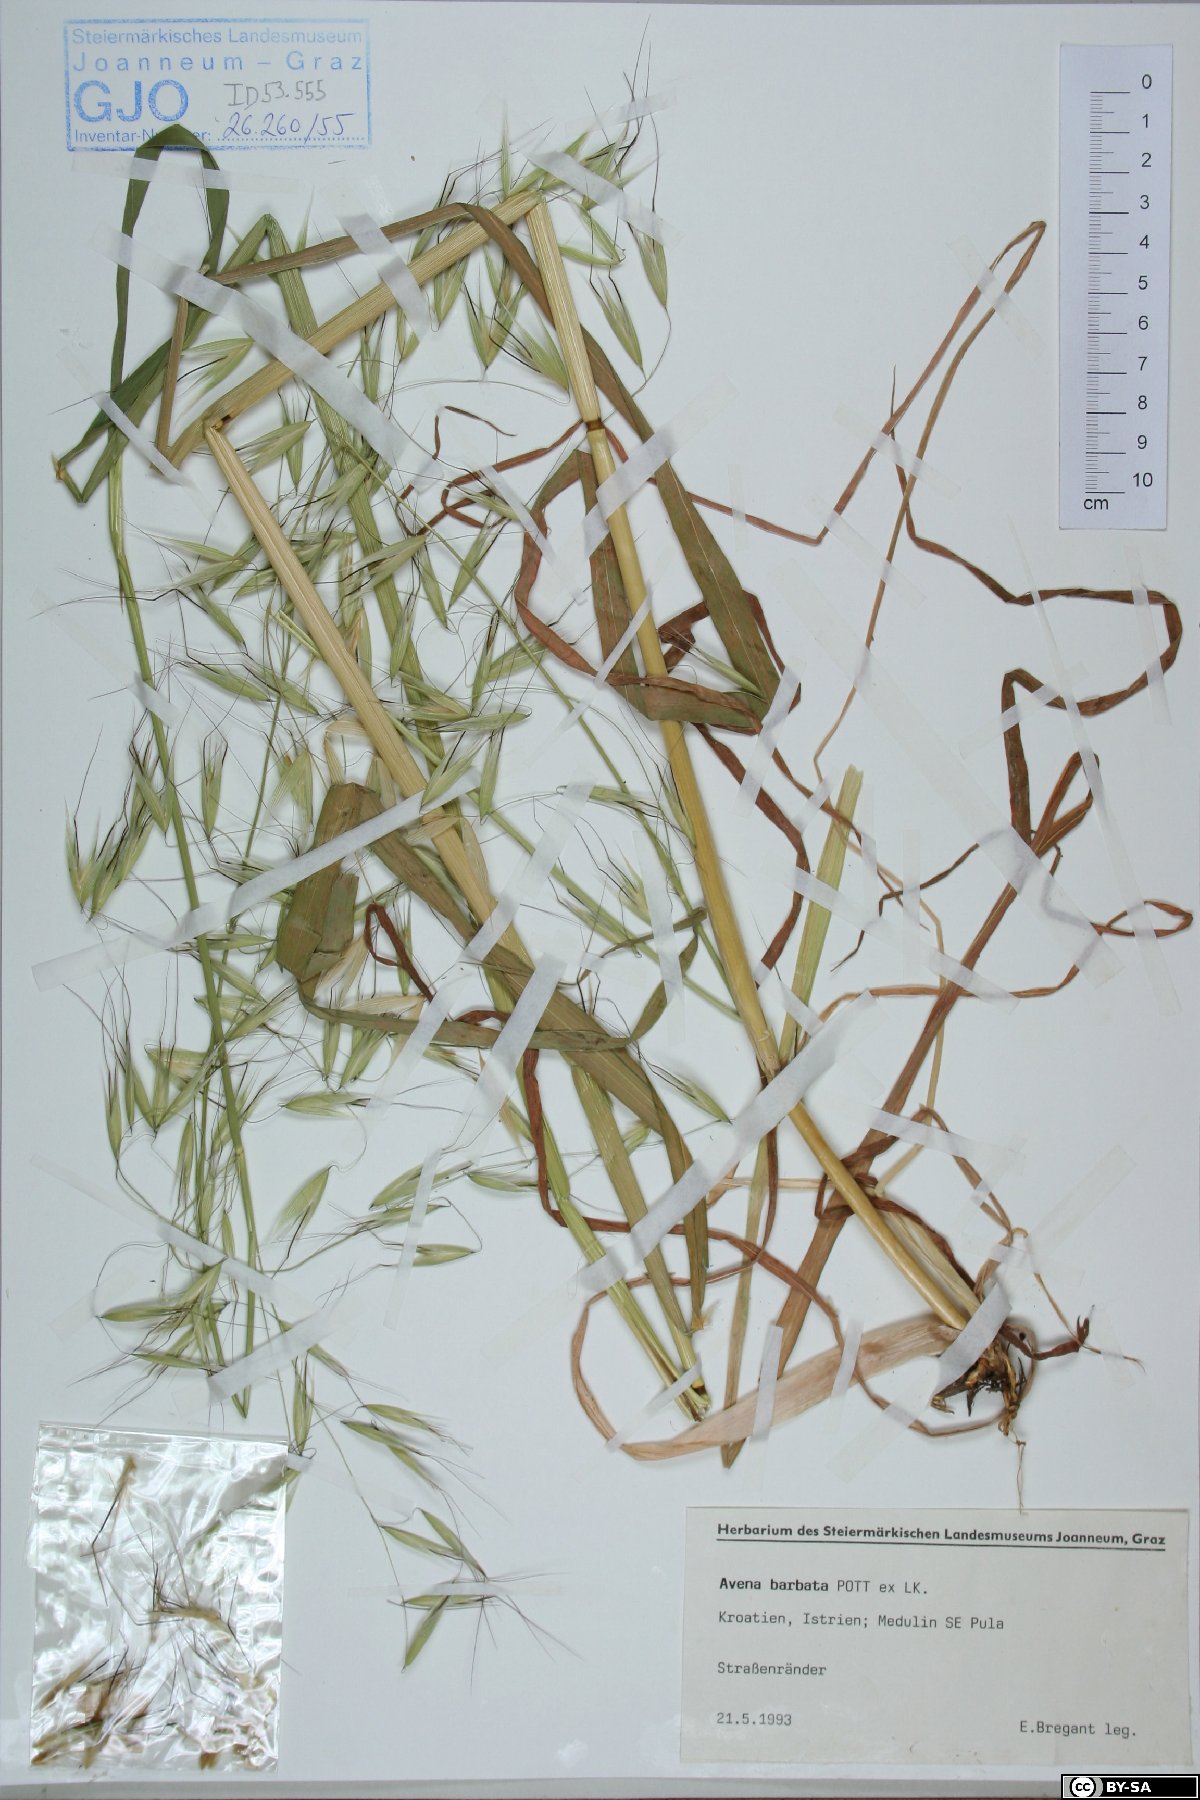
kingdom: Plantae
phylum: Tracheophyta
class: Liliopsida
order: Poales
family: Poaceae
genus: Avena
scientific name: Avena barbata
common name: Slender oat
